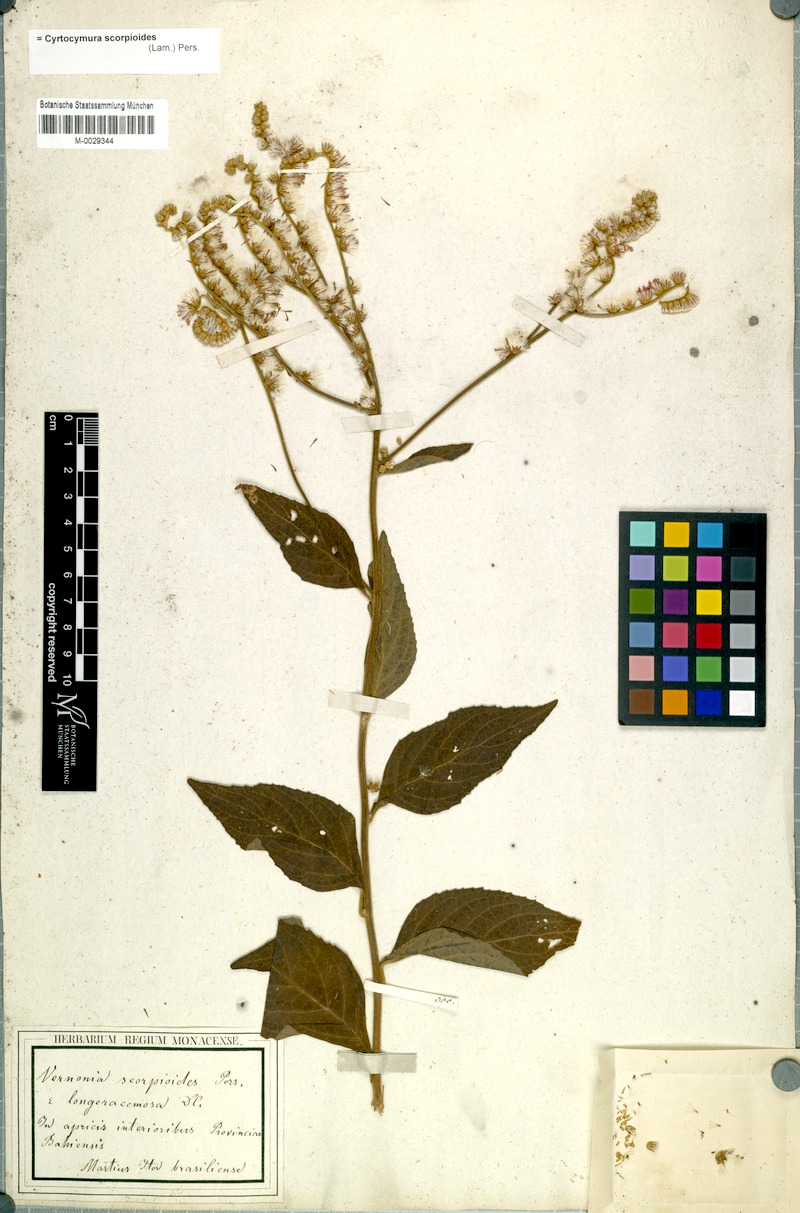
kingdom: Plantae
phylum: Tracheophyta
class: Magnoliopsida
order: Asterales
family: Asteraceae
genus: Cyrtocymura
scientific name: Cyrtocymura scorpioides
